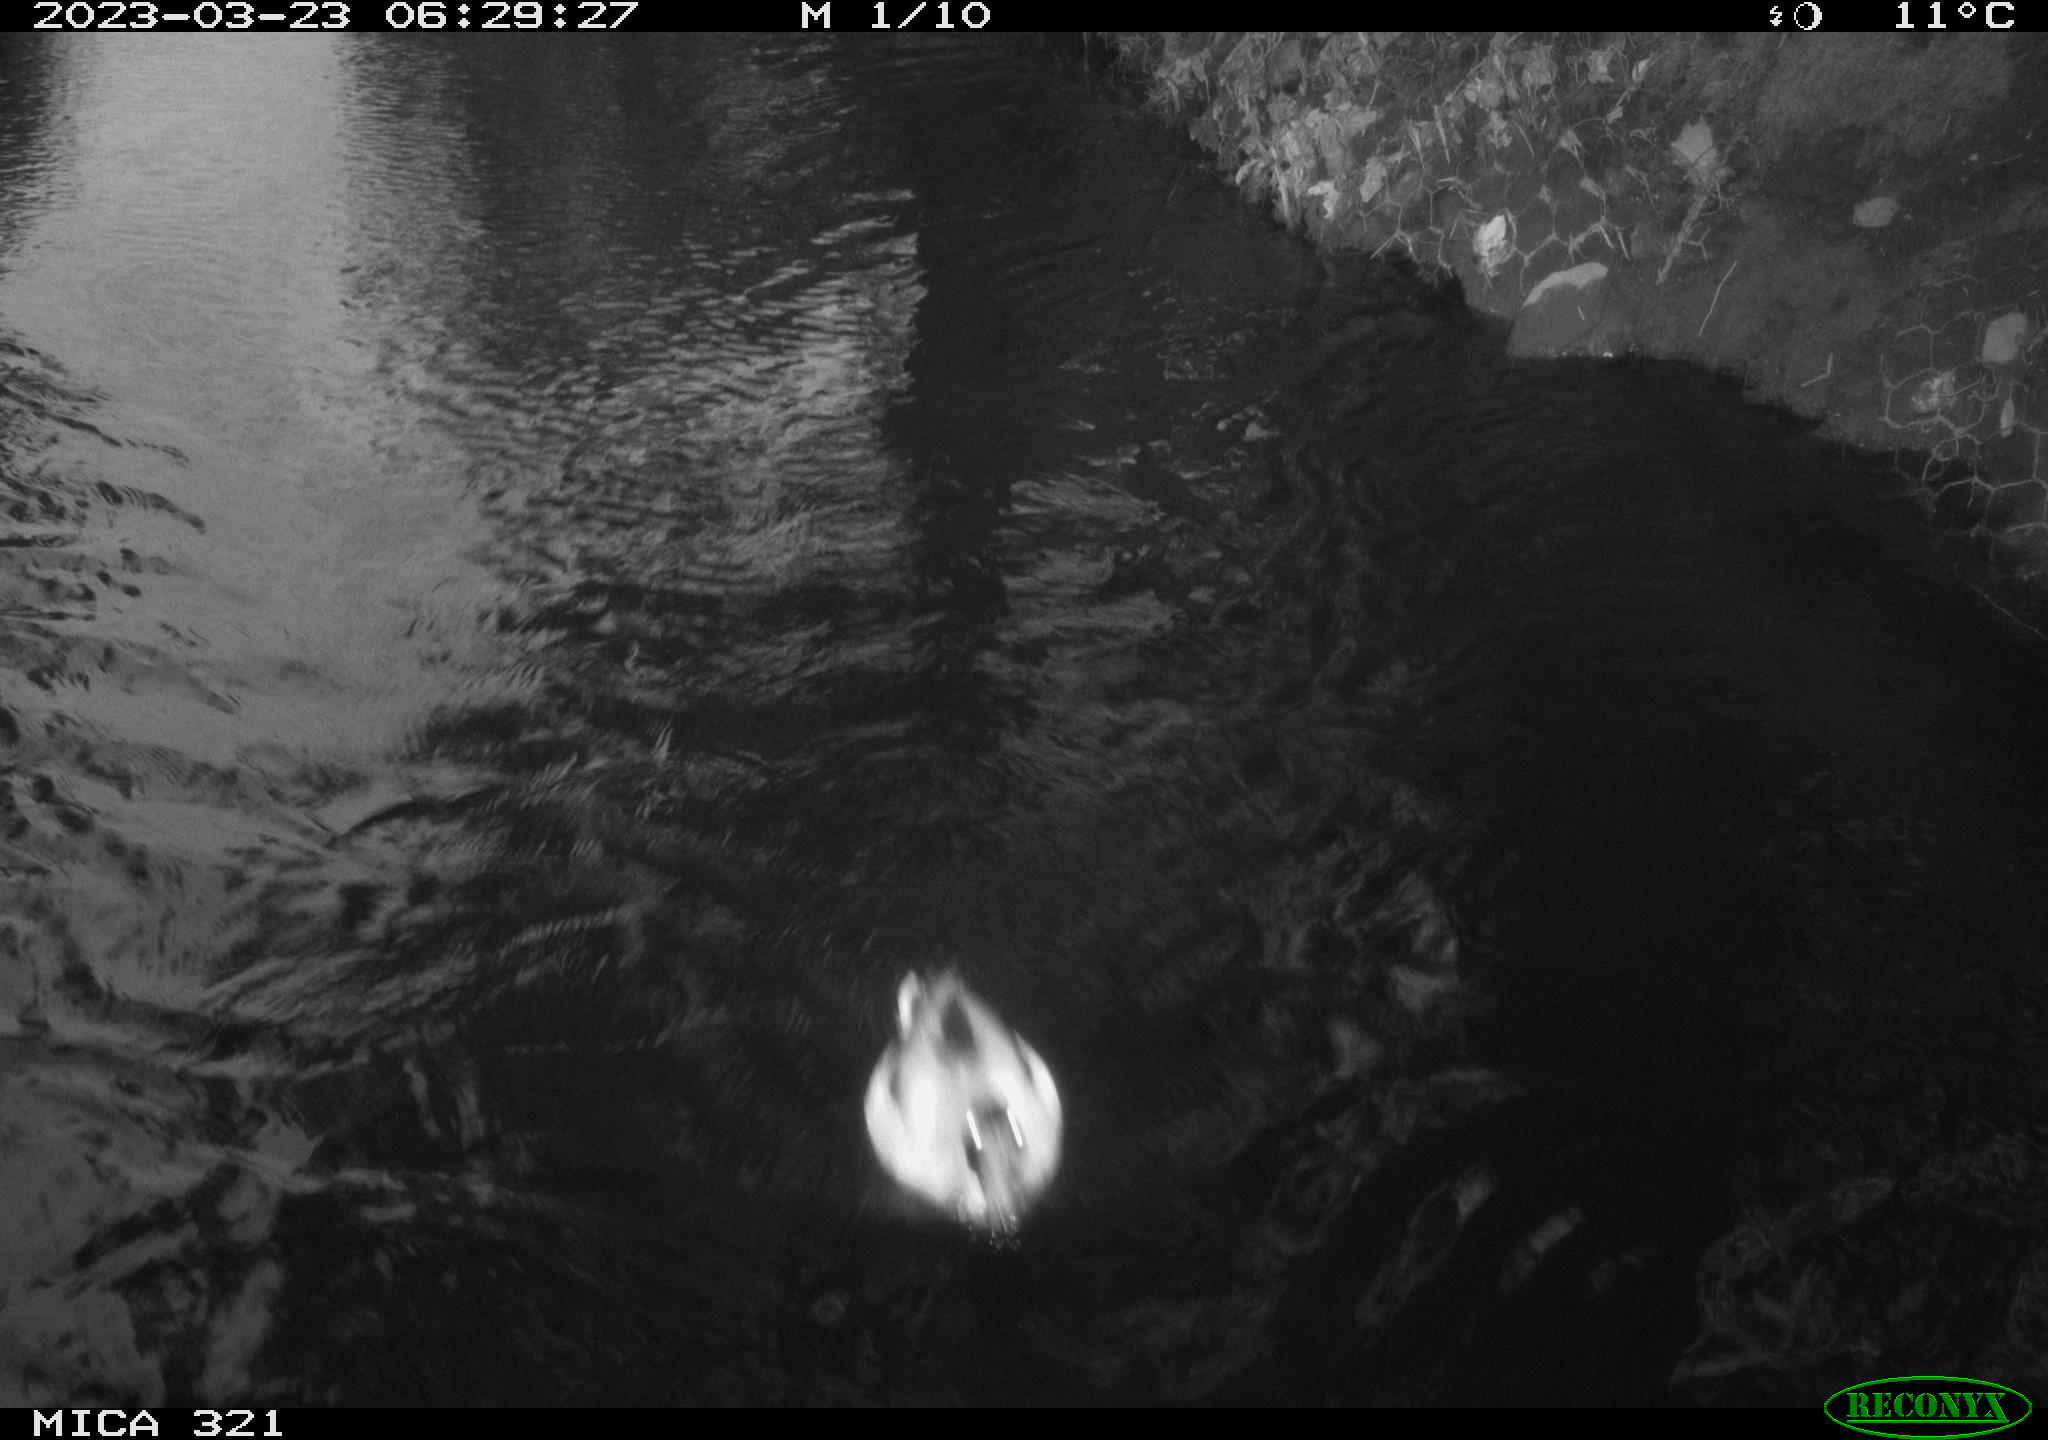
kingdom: Animalia
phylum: Chordata
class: Aves
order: Anseriformes
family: Anatidae
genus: Anas
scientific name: Anas
